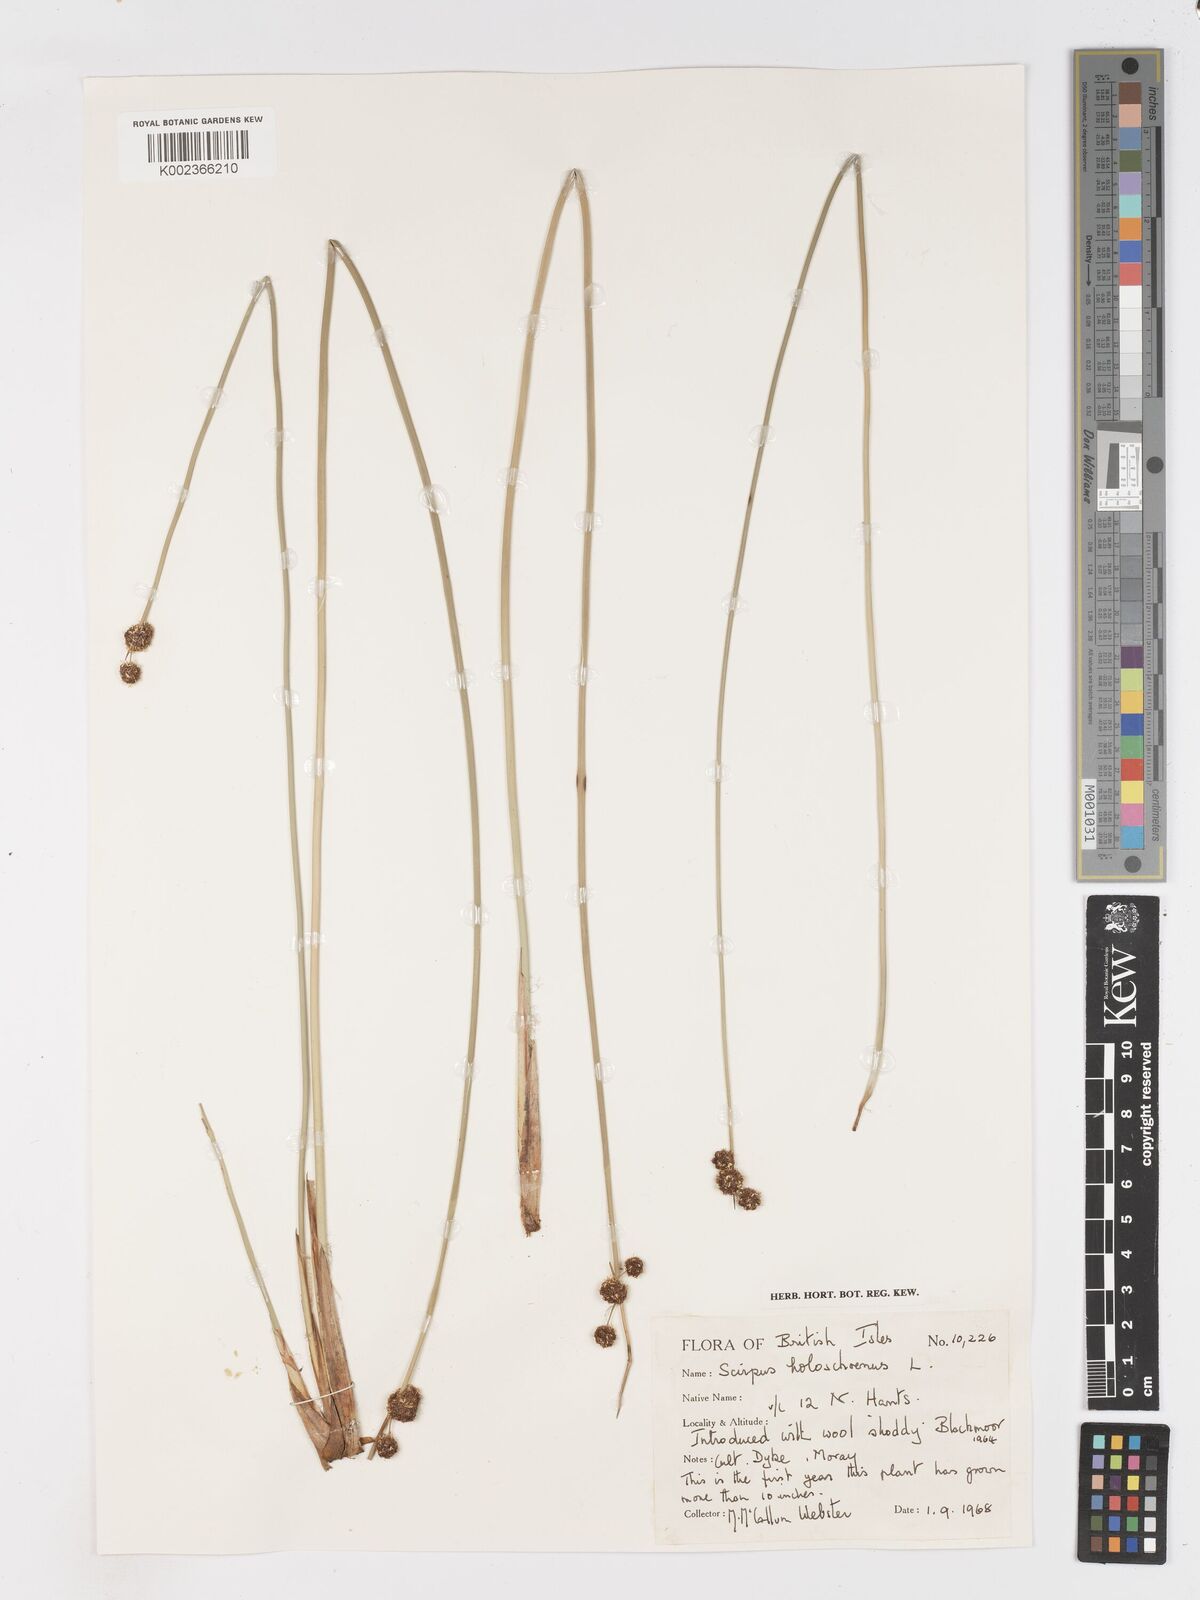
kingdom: Plantae
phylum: Tracheophyta
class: Liliopsida
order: Poales
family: Cyperaceae
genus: Scirpoides
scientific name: Scirpoides holoschoenus
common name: Round-headed club-rush
